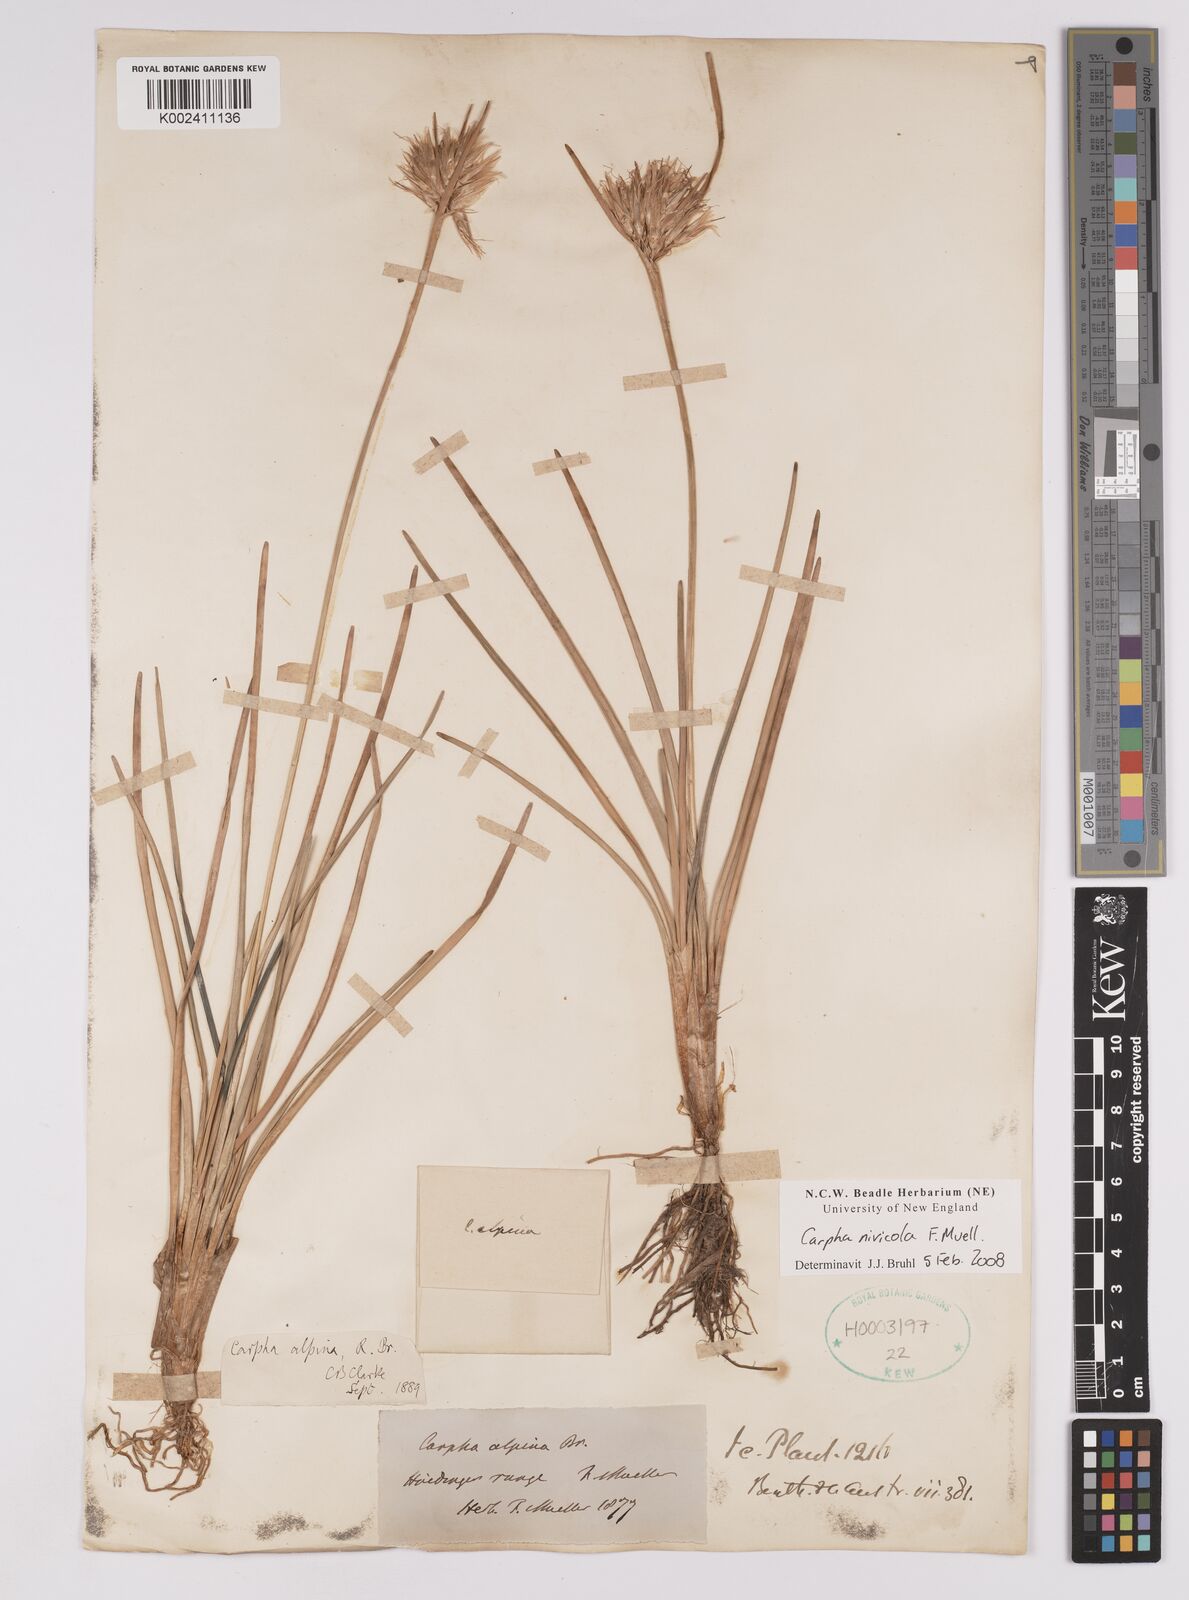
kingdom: Plantae
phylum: Tracheophyta
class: Liliopsida
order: Poales
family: Cyperaceae
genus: Carpha
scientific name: Carpha alpina
